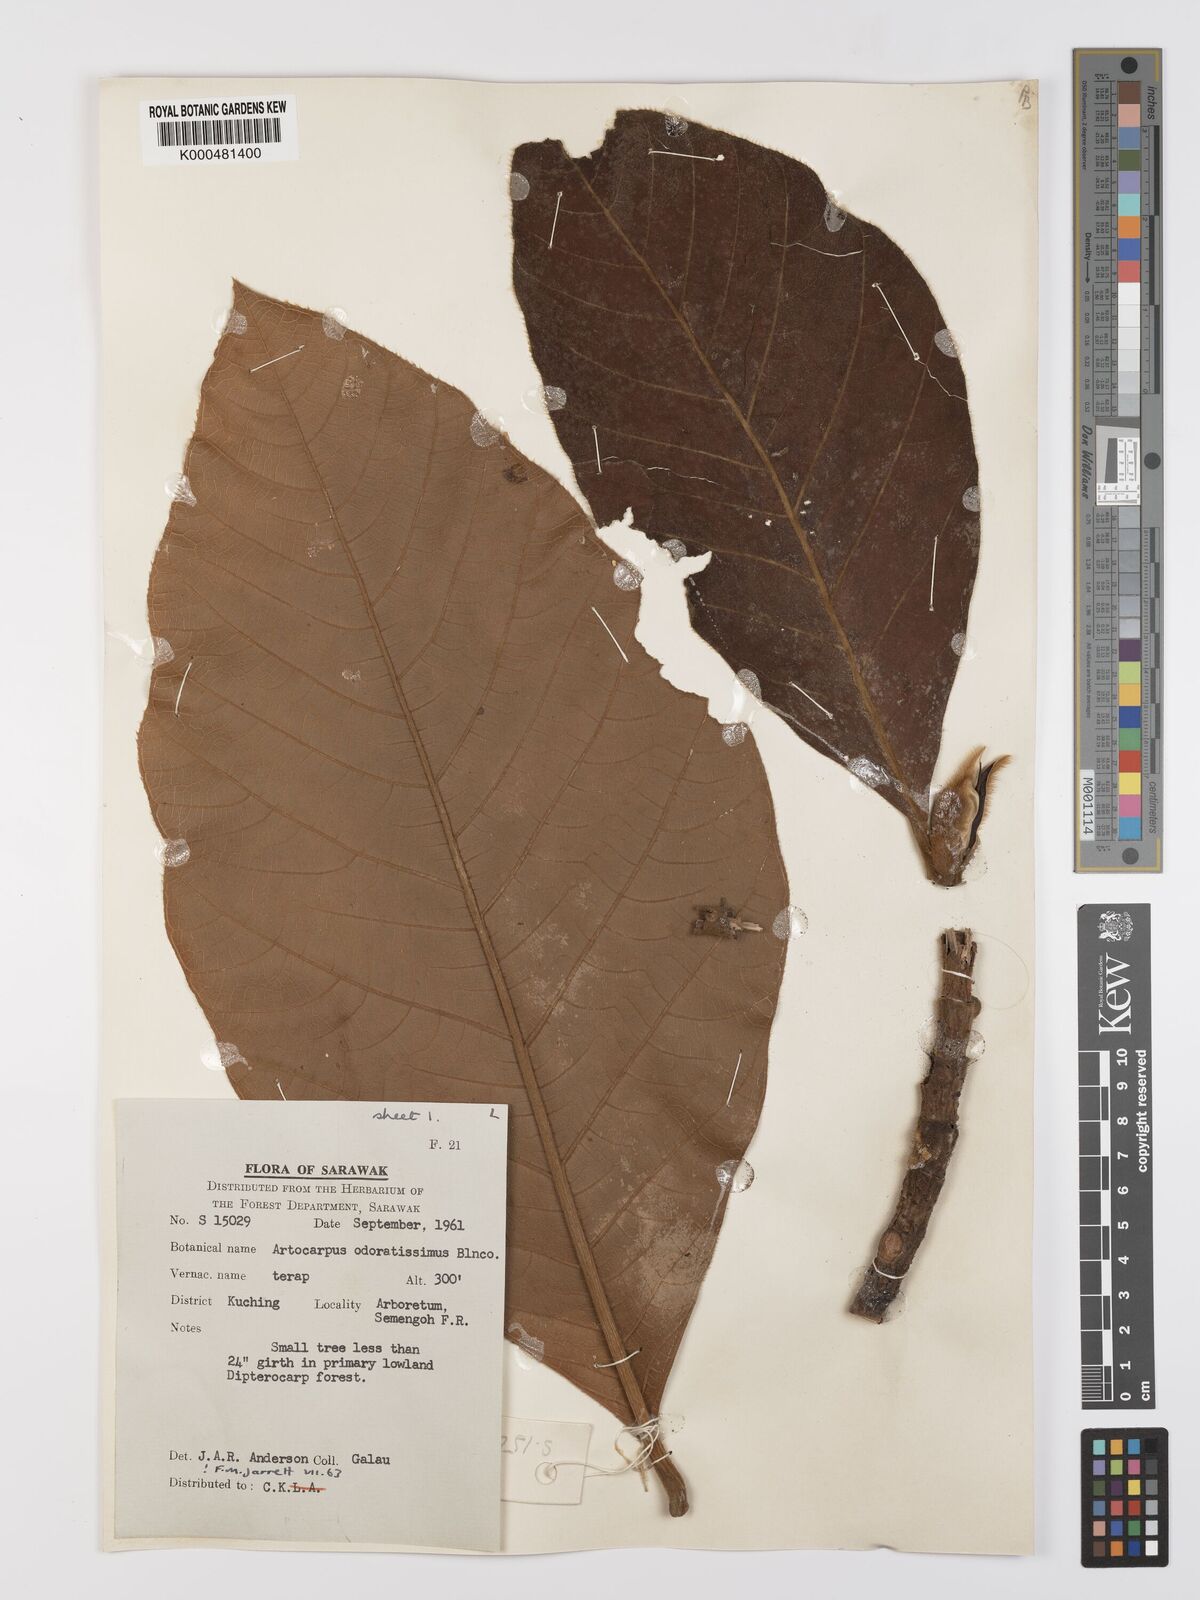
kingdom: Plantae
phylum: Tracheophyta
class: Magnoliopsida
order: Rosales
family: Moraceae
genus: Artocarpus
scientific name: Artocarpus odoratissimus
